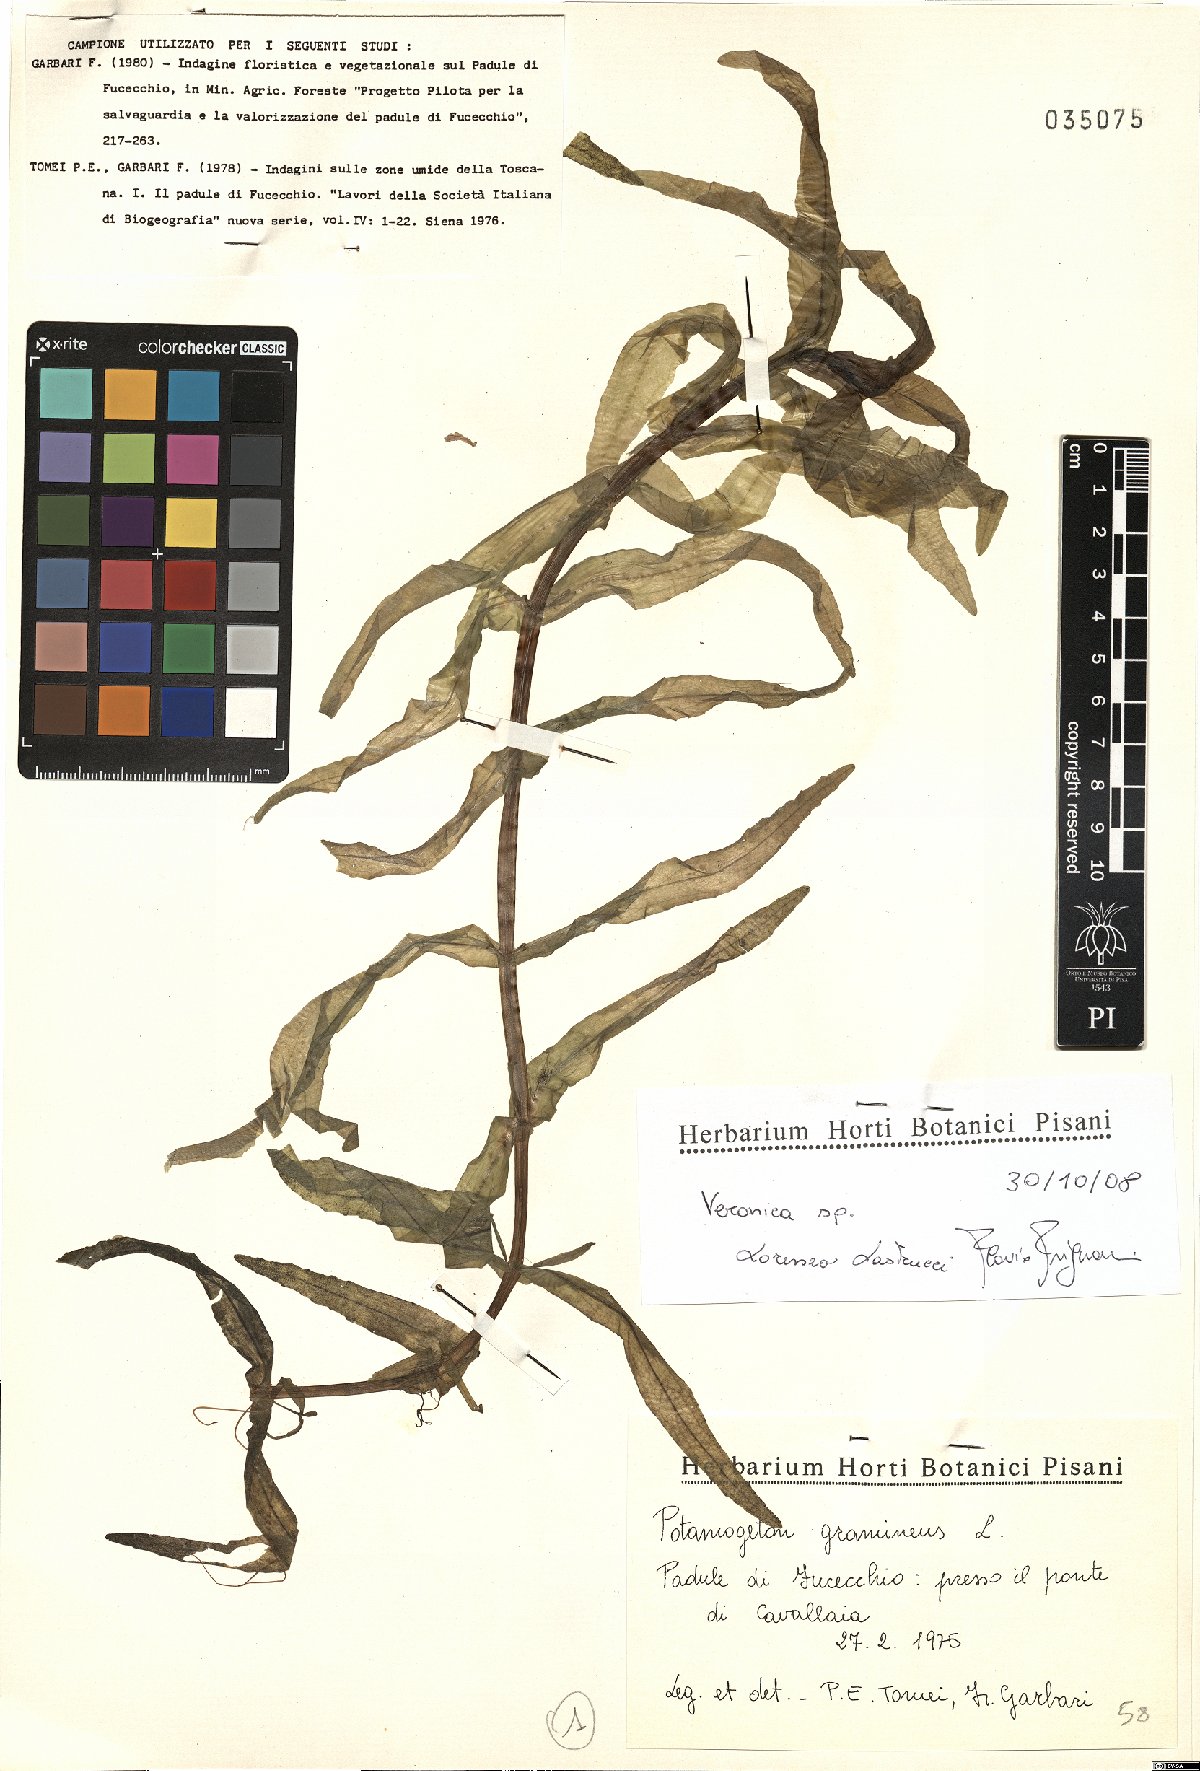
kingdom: Plantae
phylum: Tracheophyta
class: Magnoliopsida
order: Lamiales
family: Plantaginaceae
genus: Veronica
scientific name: Veronica
